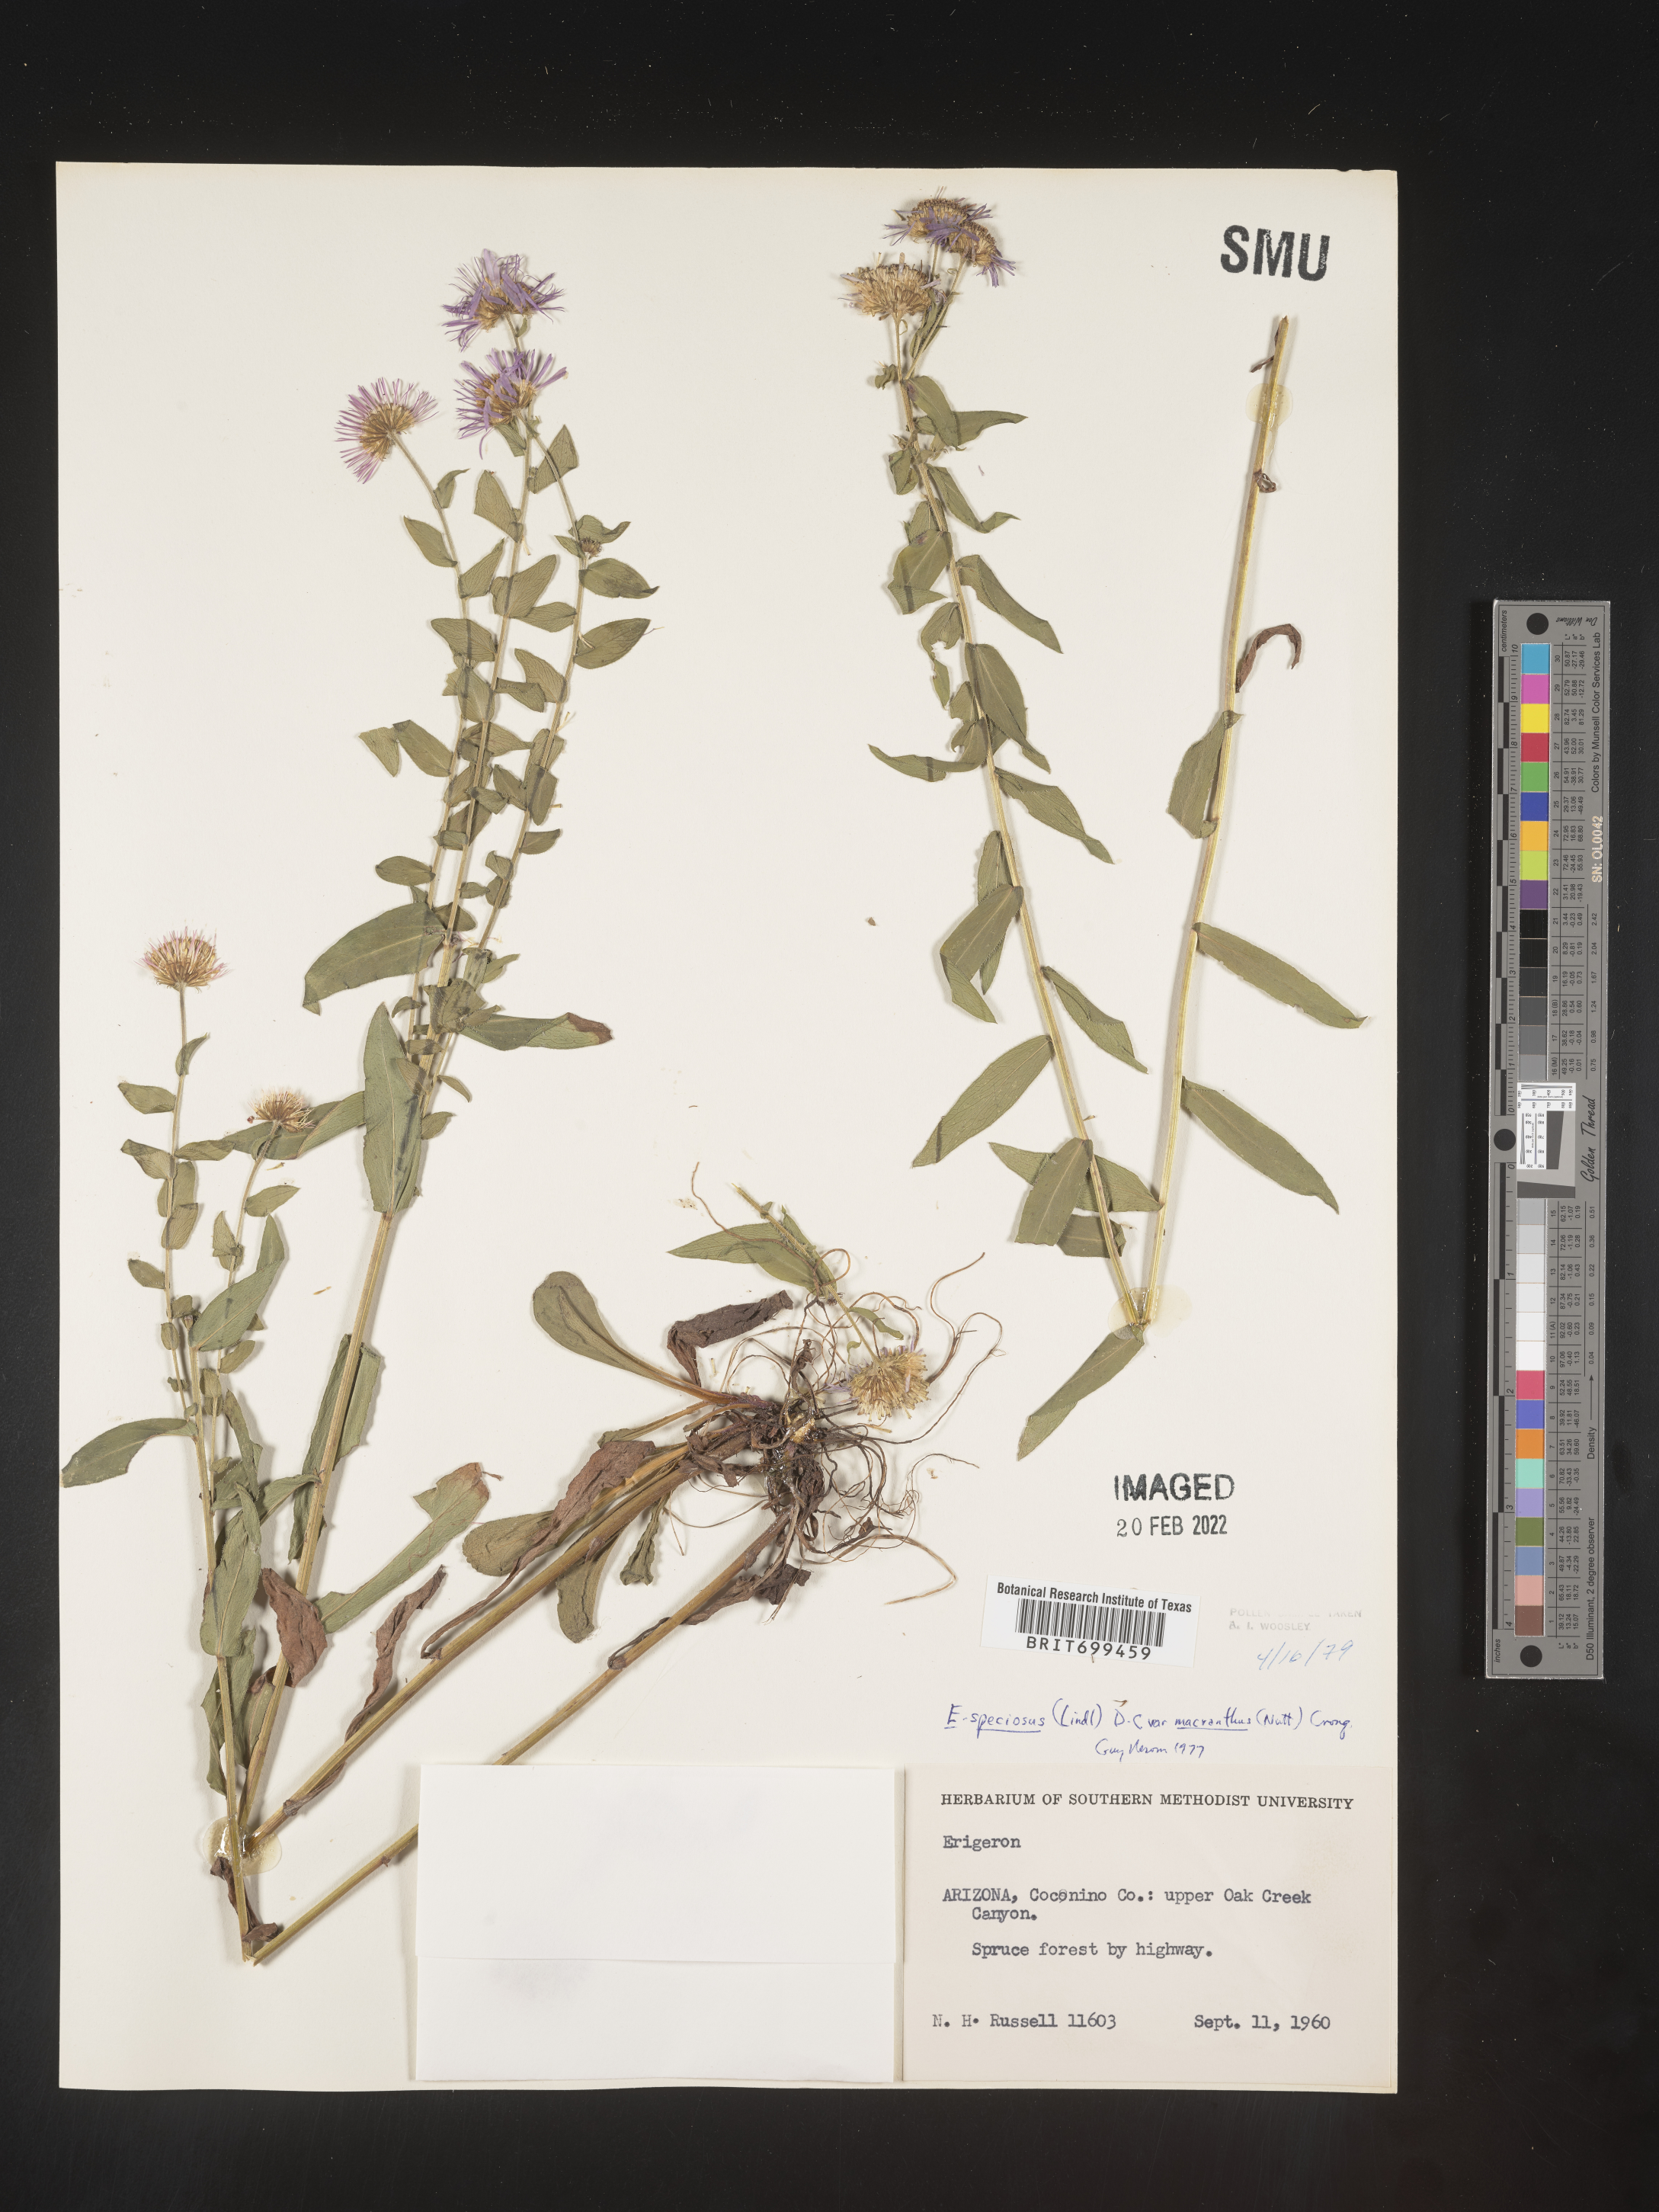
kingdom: Plantae
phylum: Tracheophyta
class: Magnoliopsida
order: Asterales
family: Asteraceae
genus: Erigeron
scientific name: Erigeron speciosus
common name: Aspen fleabane
